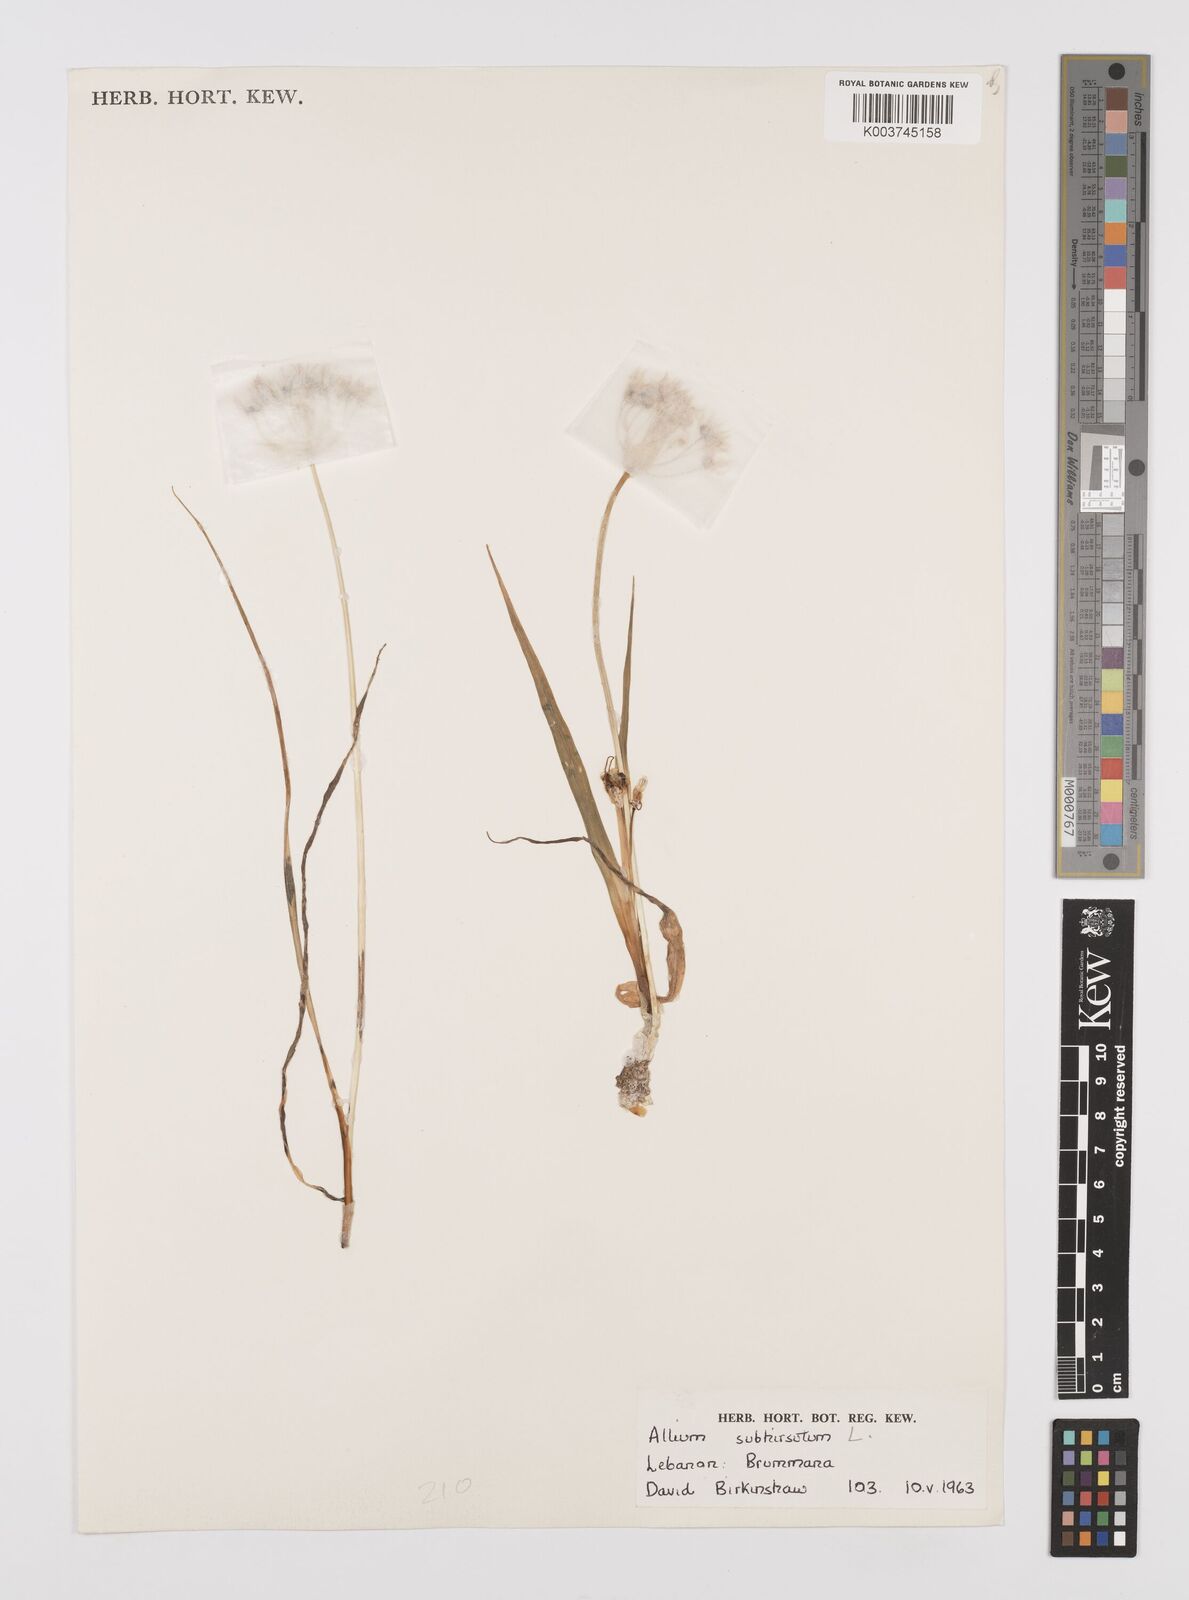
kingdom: Plantae
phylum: Tracheophyta
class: Liliopsida
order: Asparagales
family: Amaryllidaceae
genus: Allium
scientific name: Allium subhirsutum
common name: Hairy garlic
